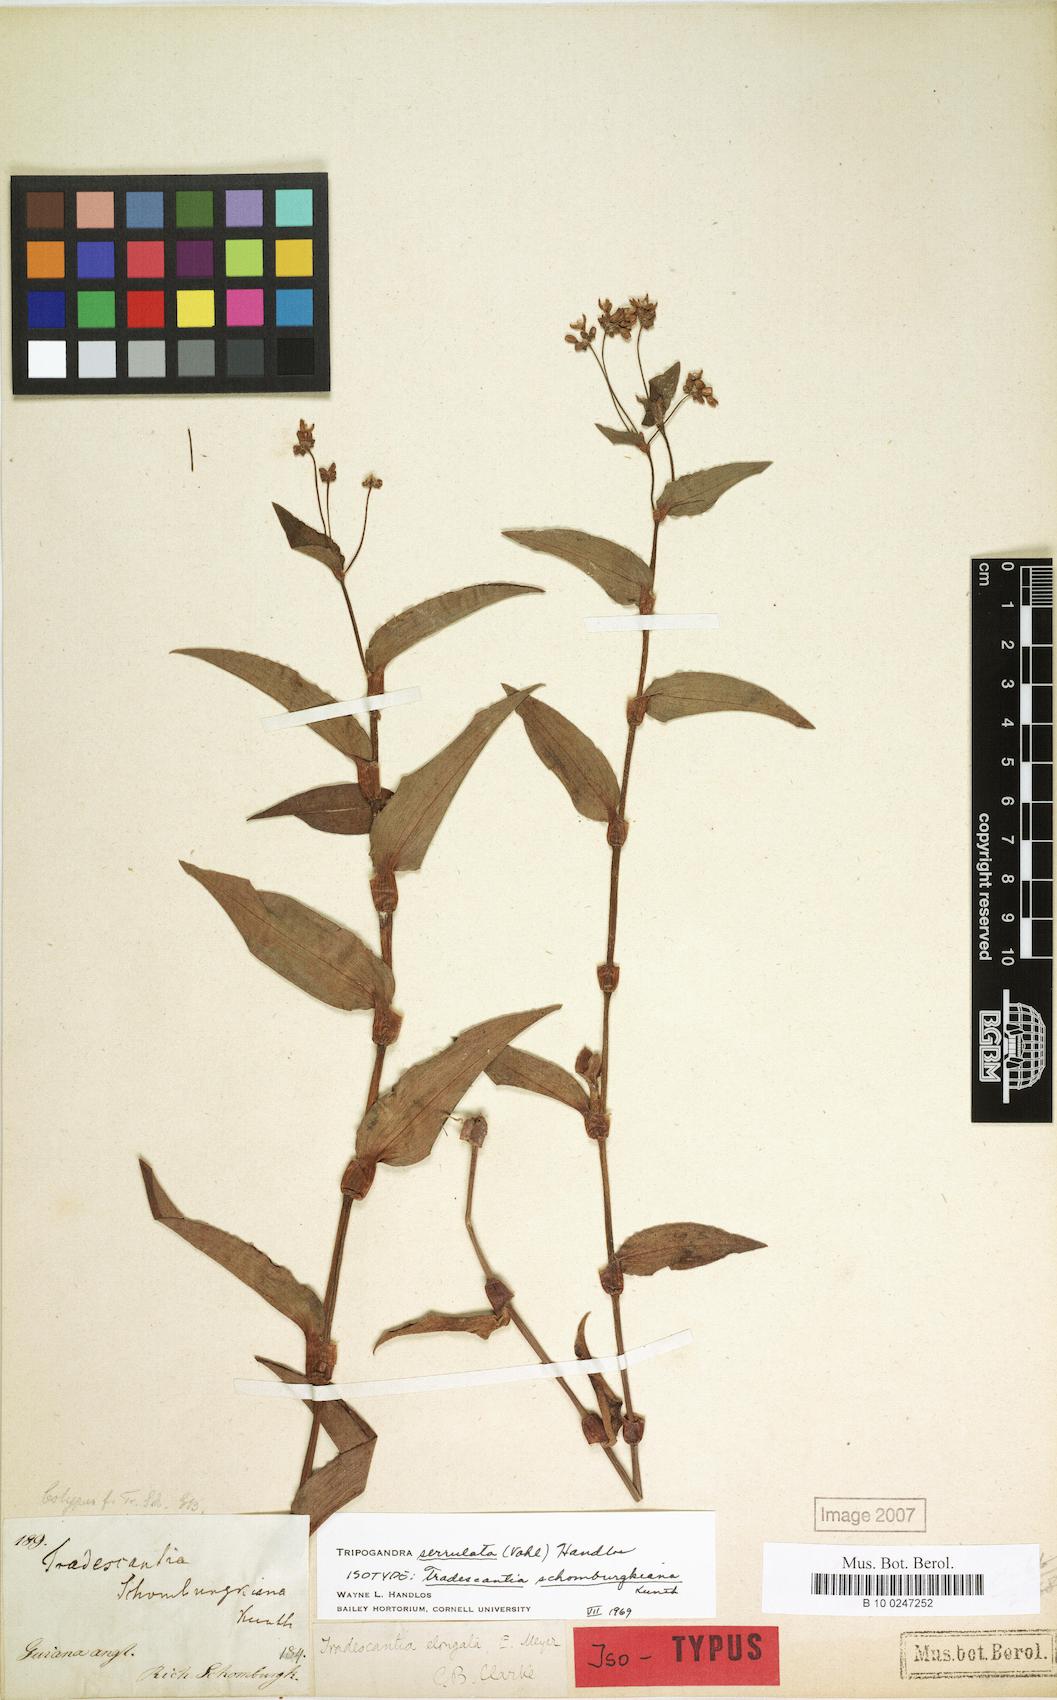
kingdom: Plantae
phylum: Tracheophyta
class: Liliopsida
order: Commelinales
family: Commelinaceae
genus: Callisia
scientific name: Callisia serrulata
